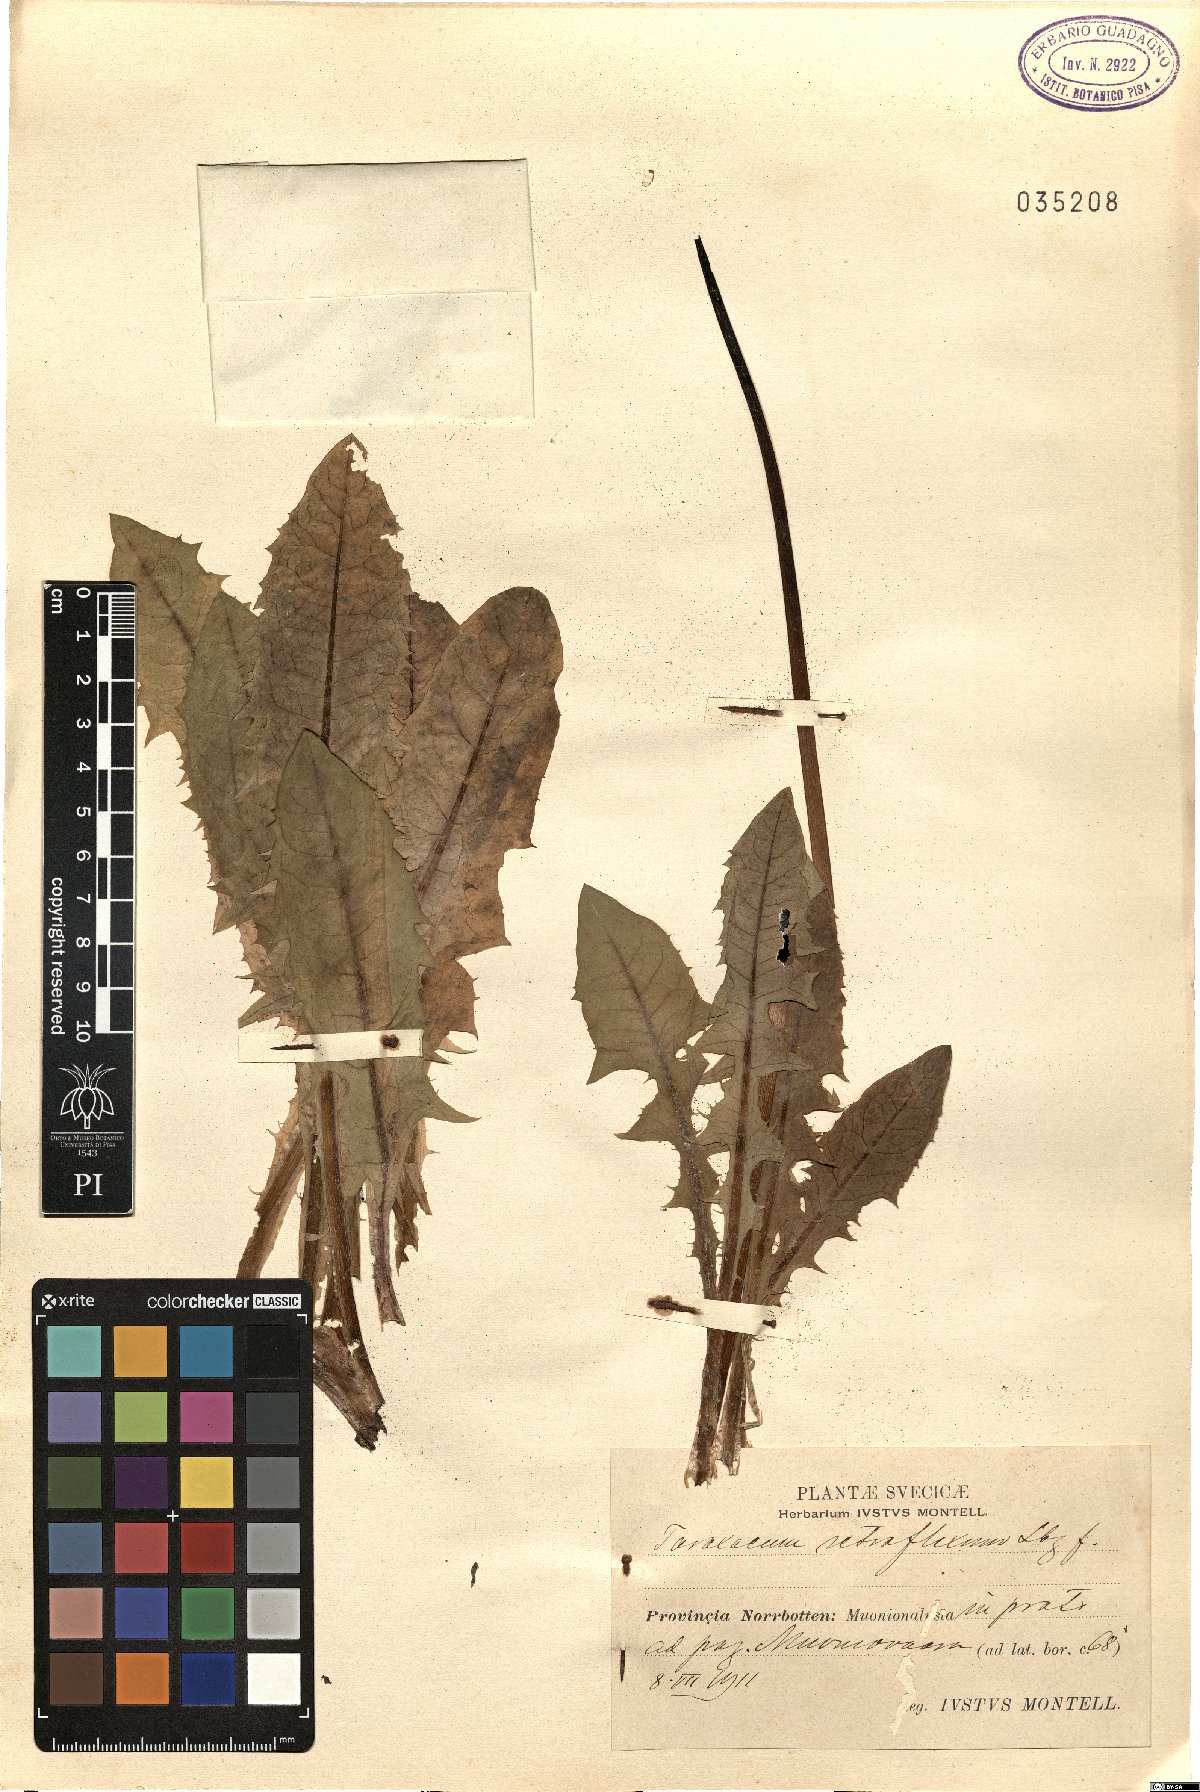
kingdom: Plantae
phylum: Tracheophyta
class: Magnoliopsida
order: Asterales
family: Asteraceae
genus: Taraxacum
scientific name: Taraxacum retroflexum
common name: Reflexed-lobed dandelion
